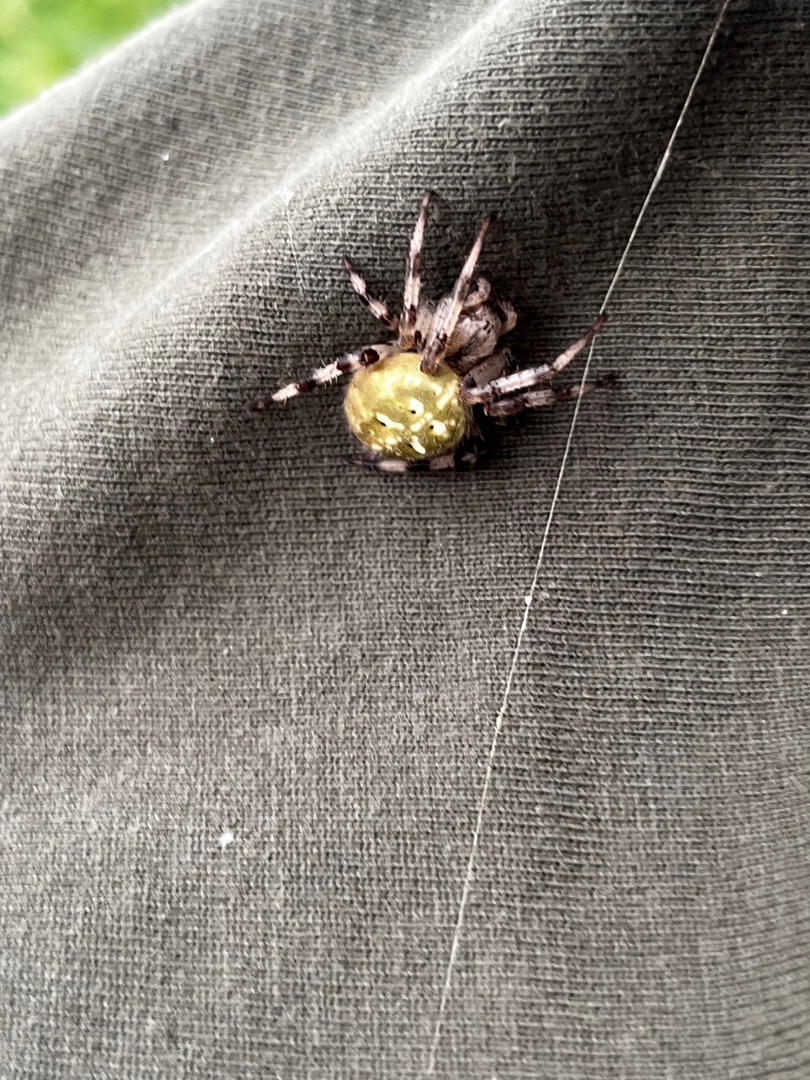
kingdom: Animalia
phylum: Arthropoda
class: Arachnida
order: Araneae
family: Araneidae
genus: Araneus
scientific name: Araneus quadratus
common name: Kvadratedderkop
